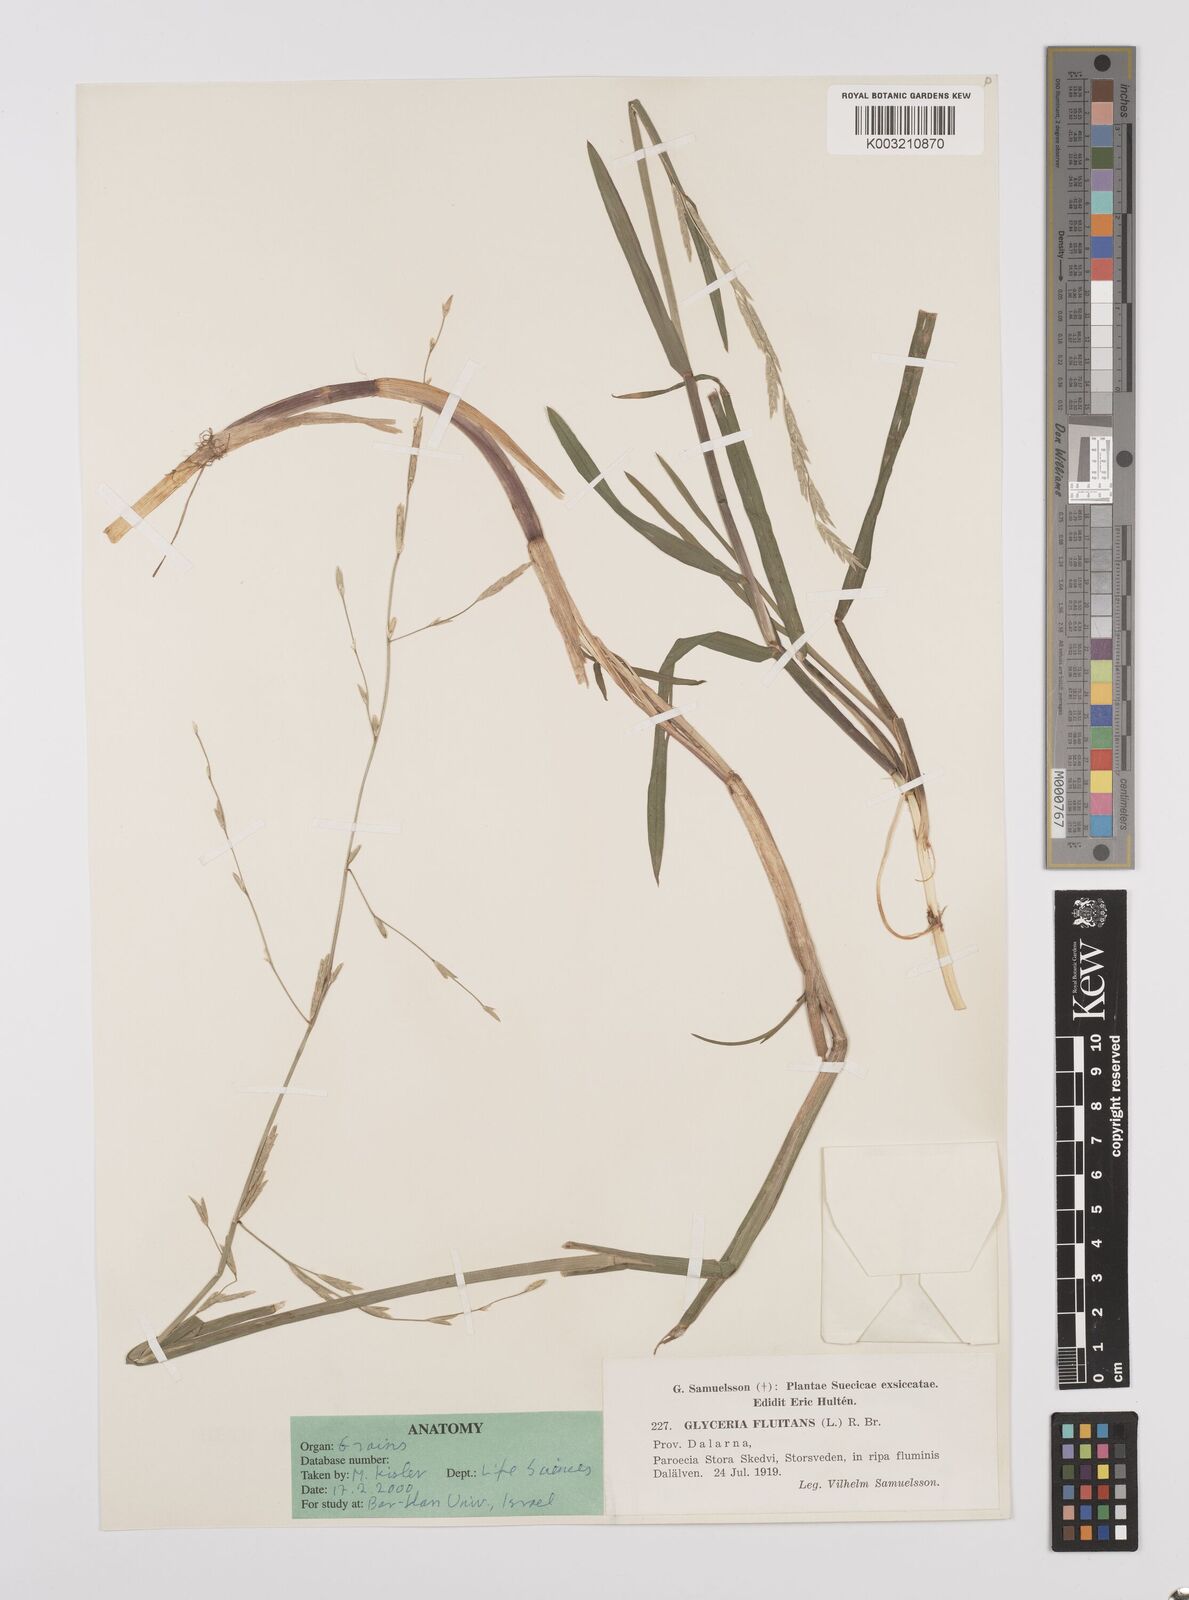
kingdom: Plantae
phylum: Tracheophyta
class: Liliopsida
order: Poales
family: Poaceae
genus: Glyceria
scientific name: Glyceria fluitans
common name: Floating sweet-grass
